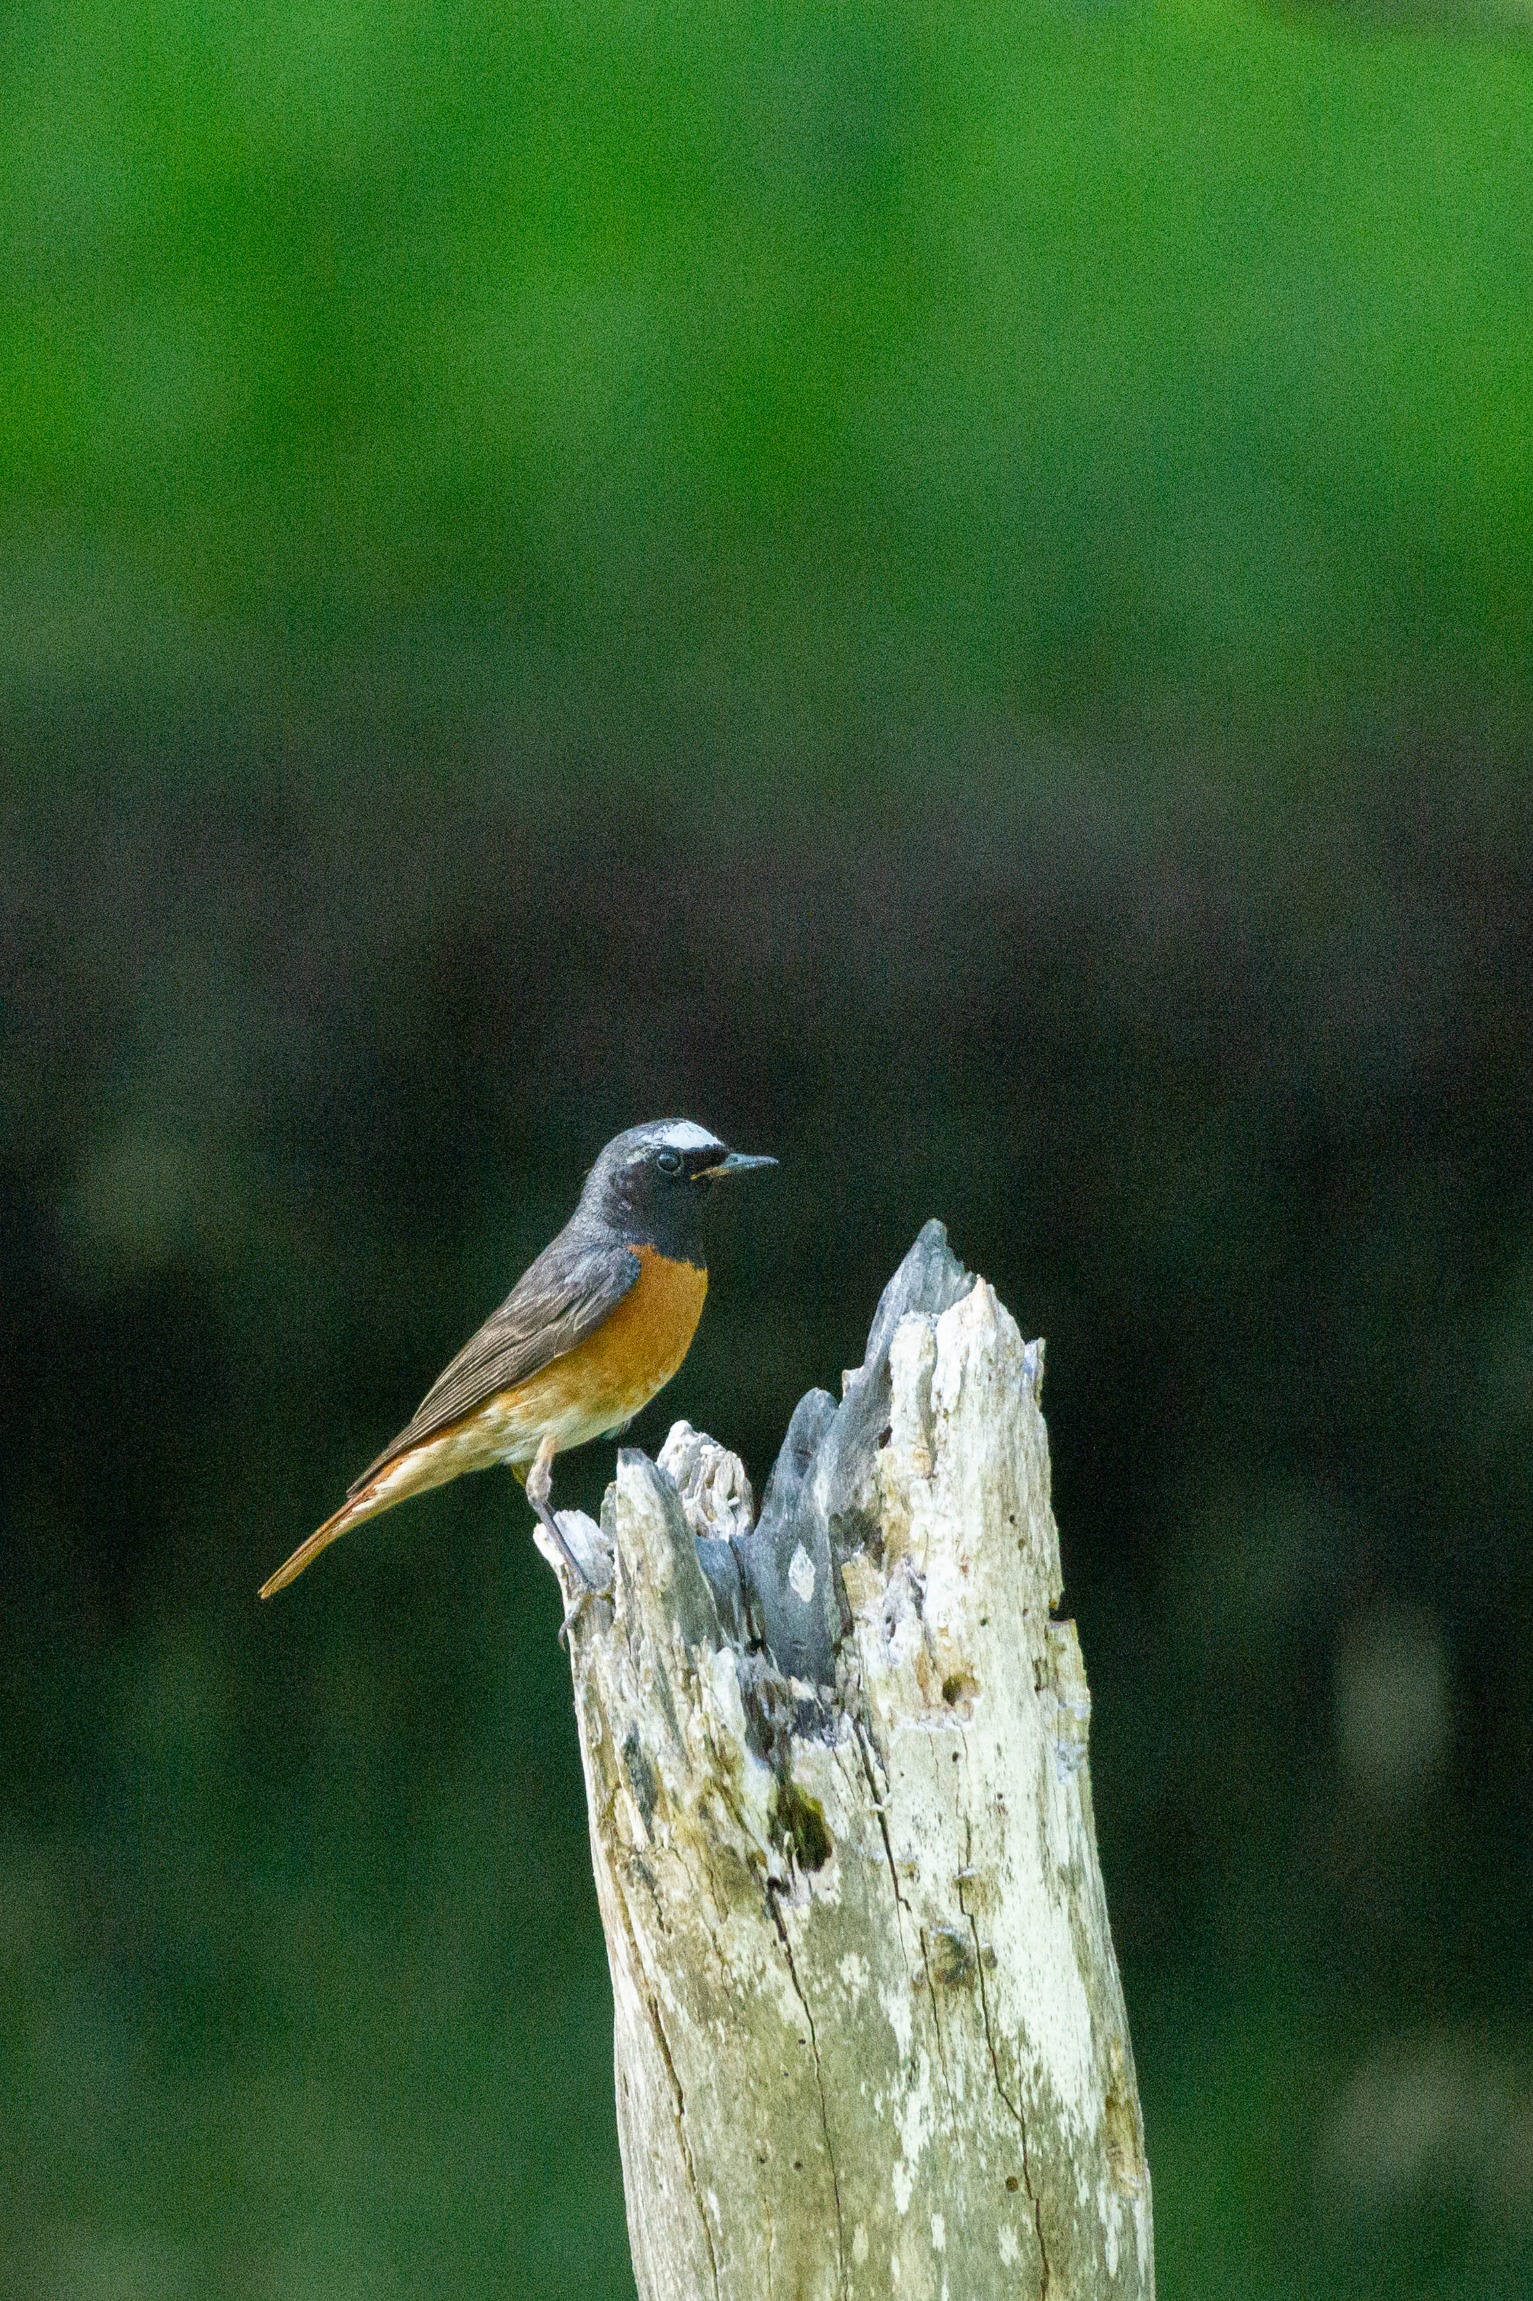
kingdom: Animalia
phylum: Chordata
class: Aves
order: Passeriformes
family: Muscicapidae
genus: Phoenicurus
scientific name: Phoenicurus phoenicurus
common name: Rødstjert
